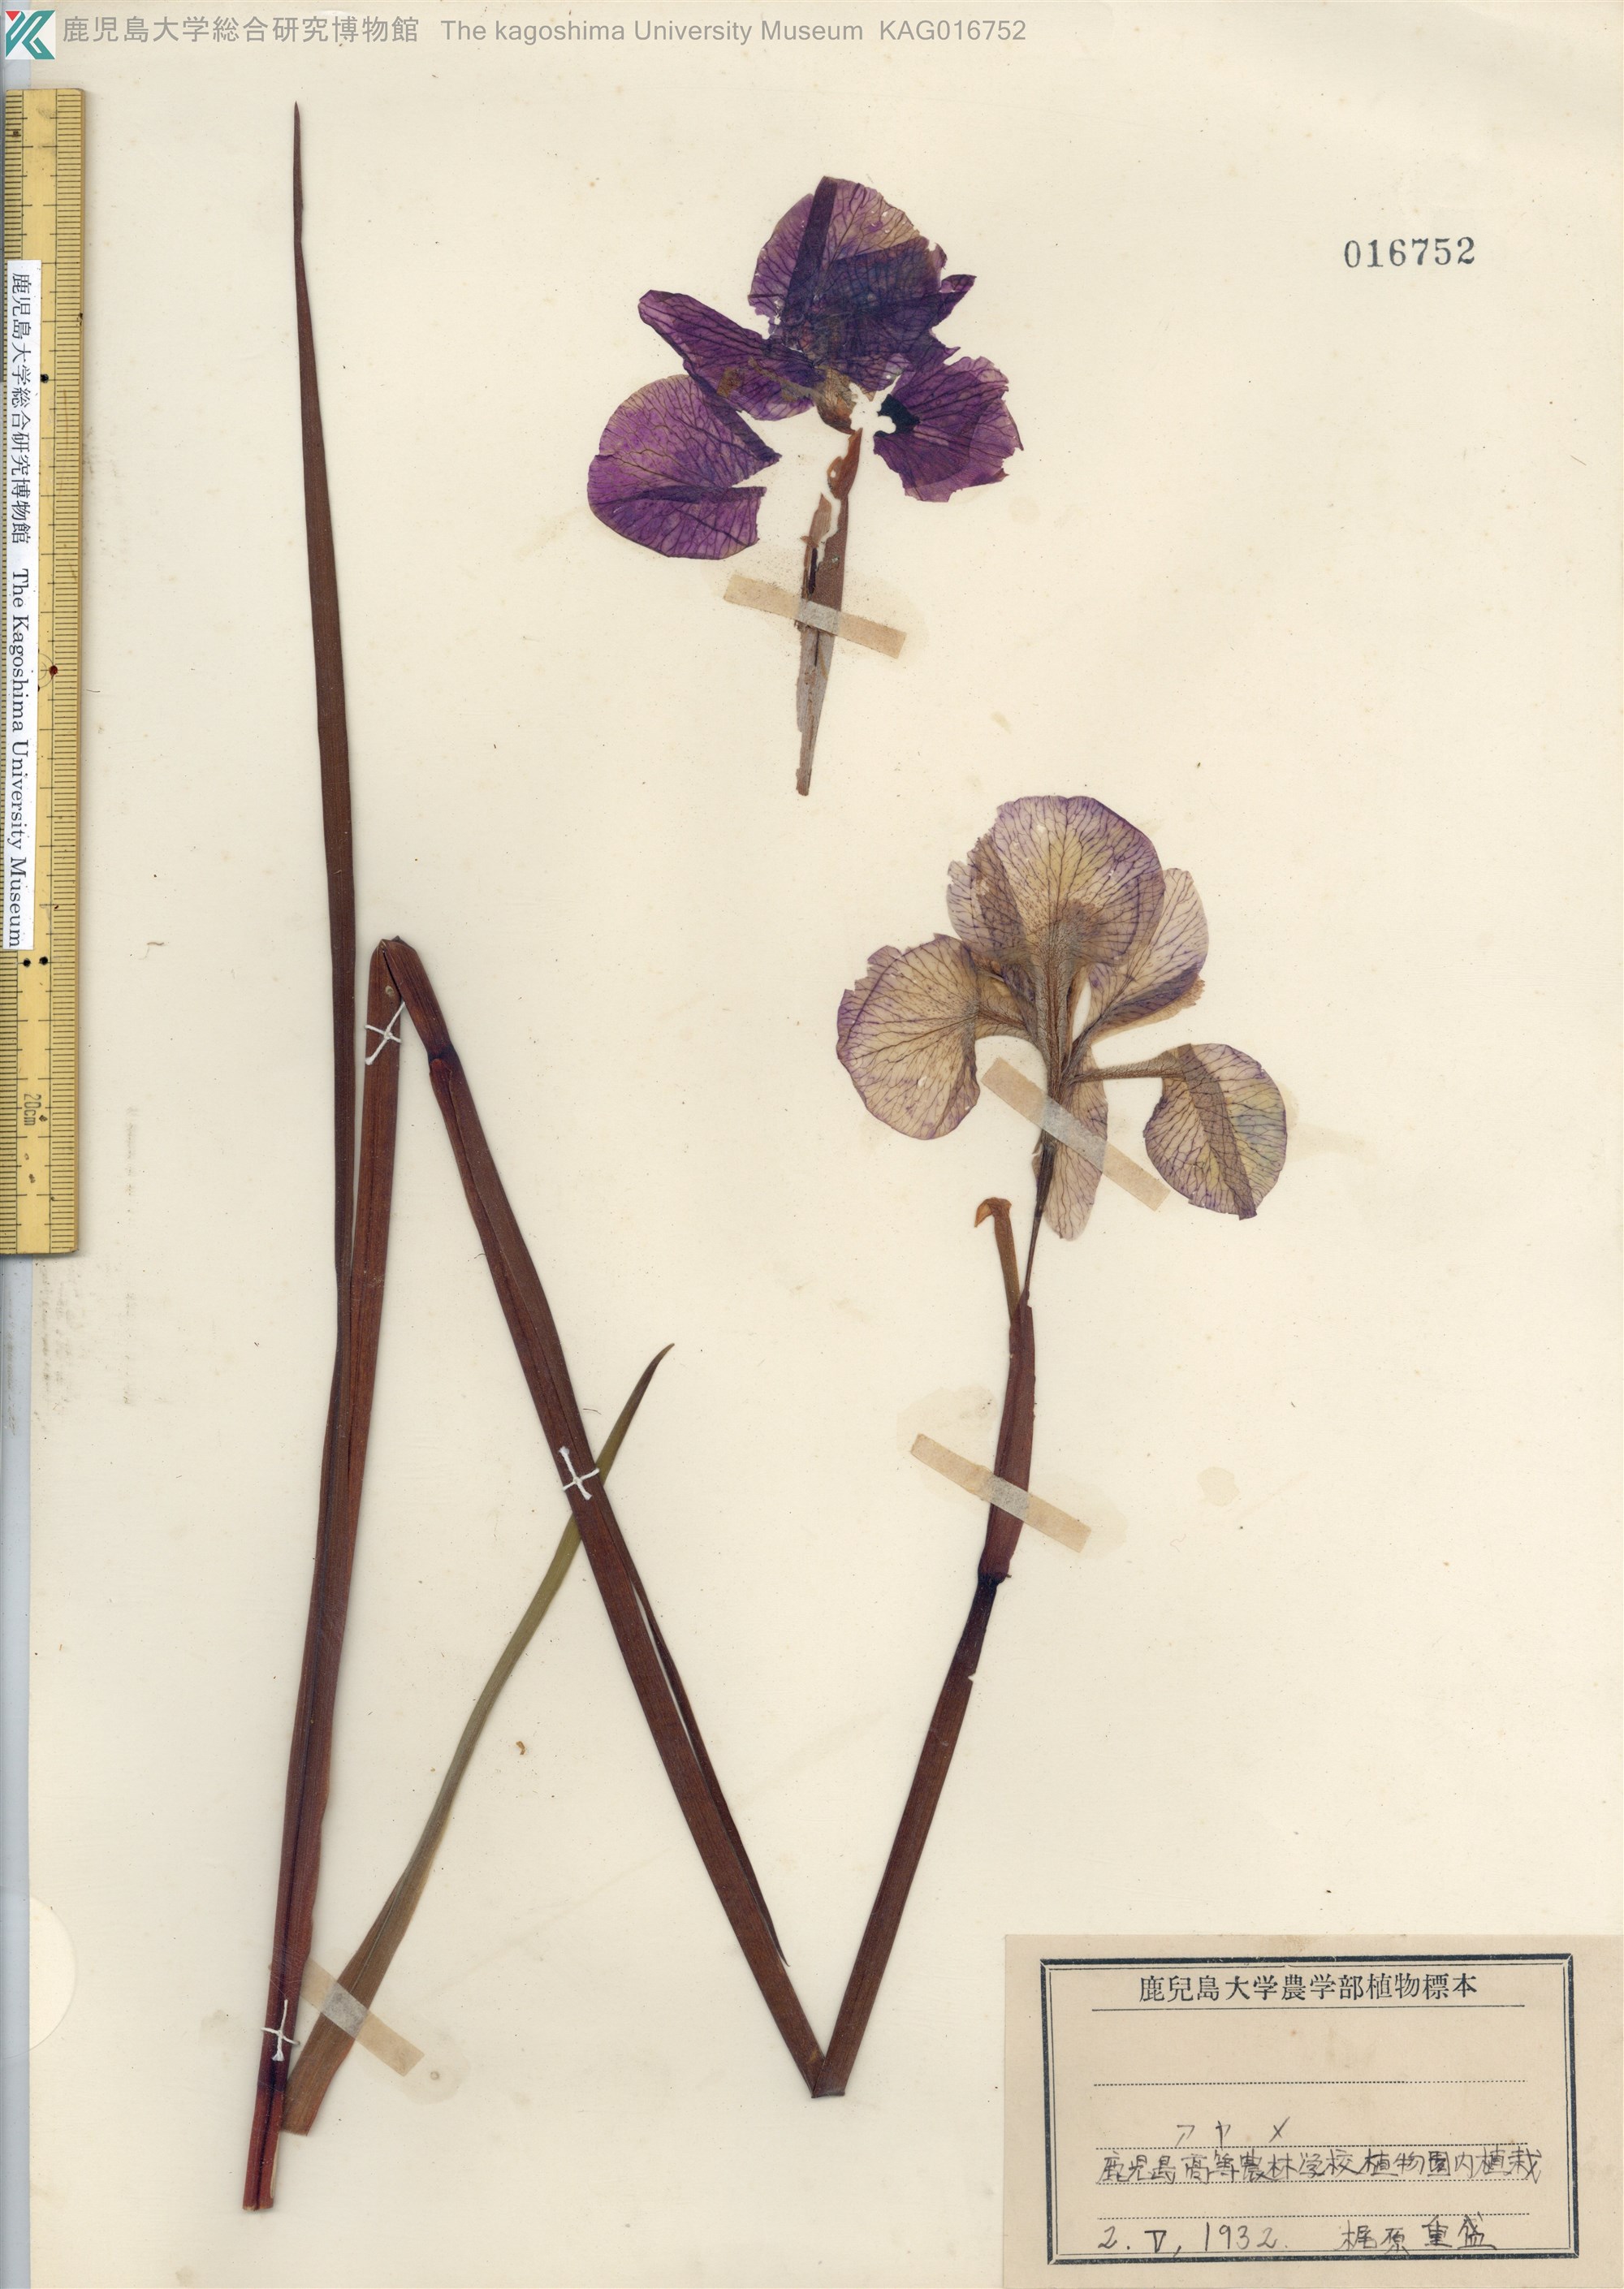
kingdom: Plantae
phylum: Tracheophyta
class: Liliopsida
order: Asparagales
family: Iridaceae
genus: Iris
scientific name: Iris sanguinea
